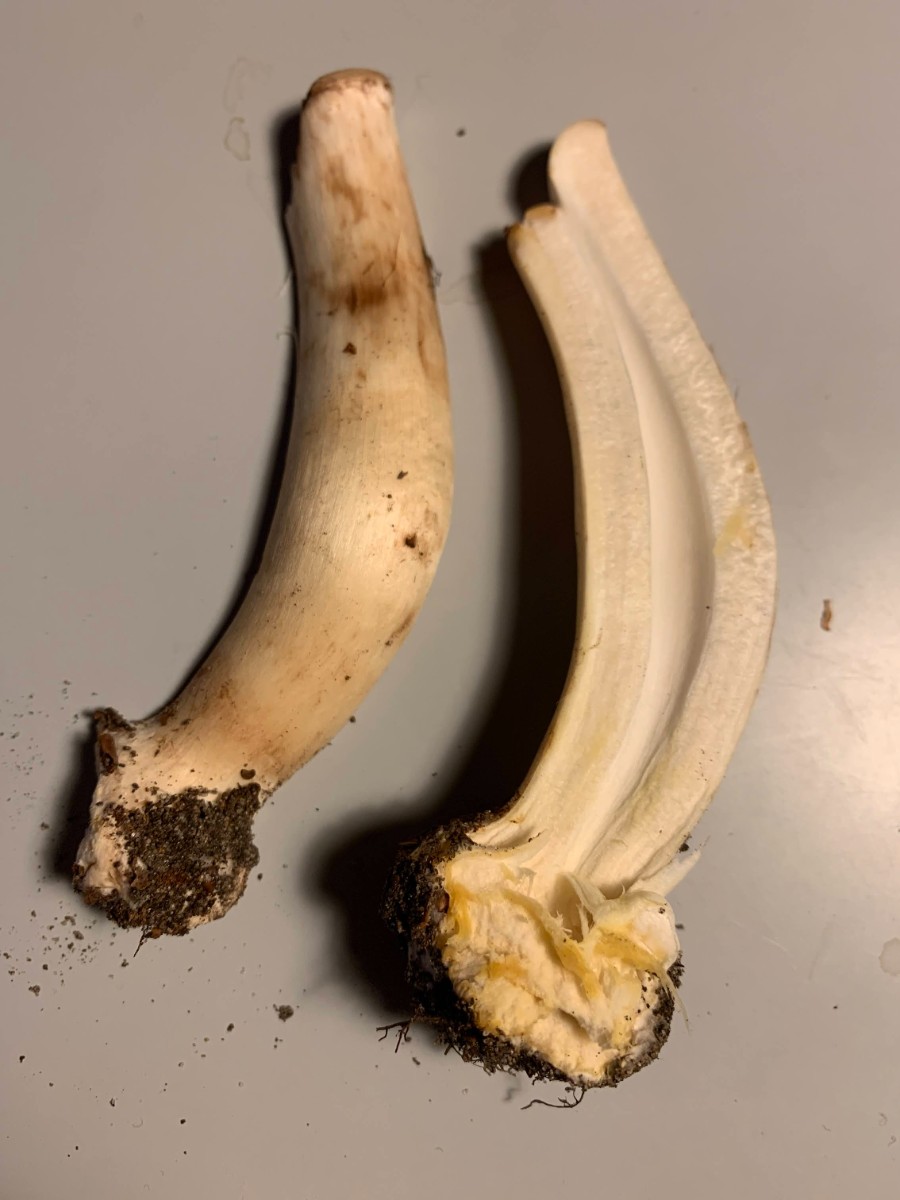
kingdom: Fungi
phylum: Basidiomycota
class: Agaricomycetes
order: Agaricales
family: Agaricaceae
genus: Agaricus
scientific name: Agaricus
